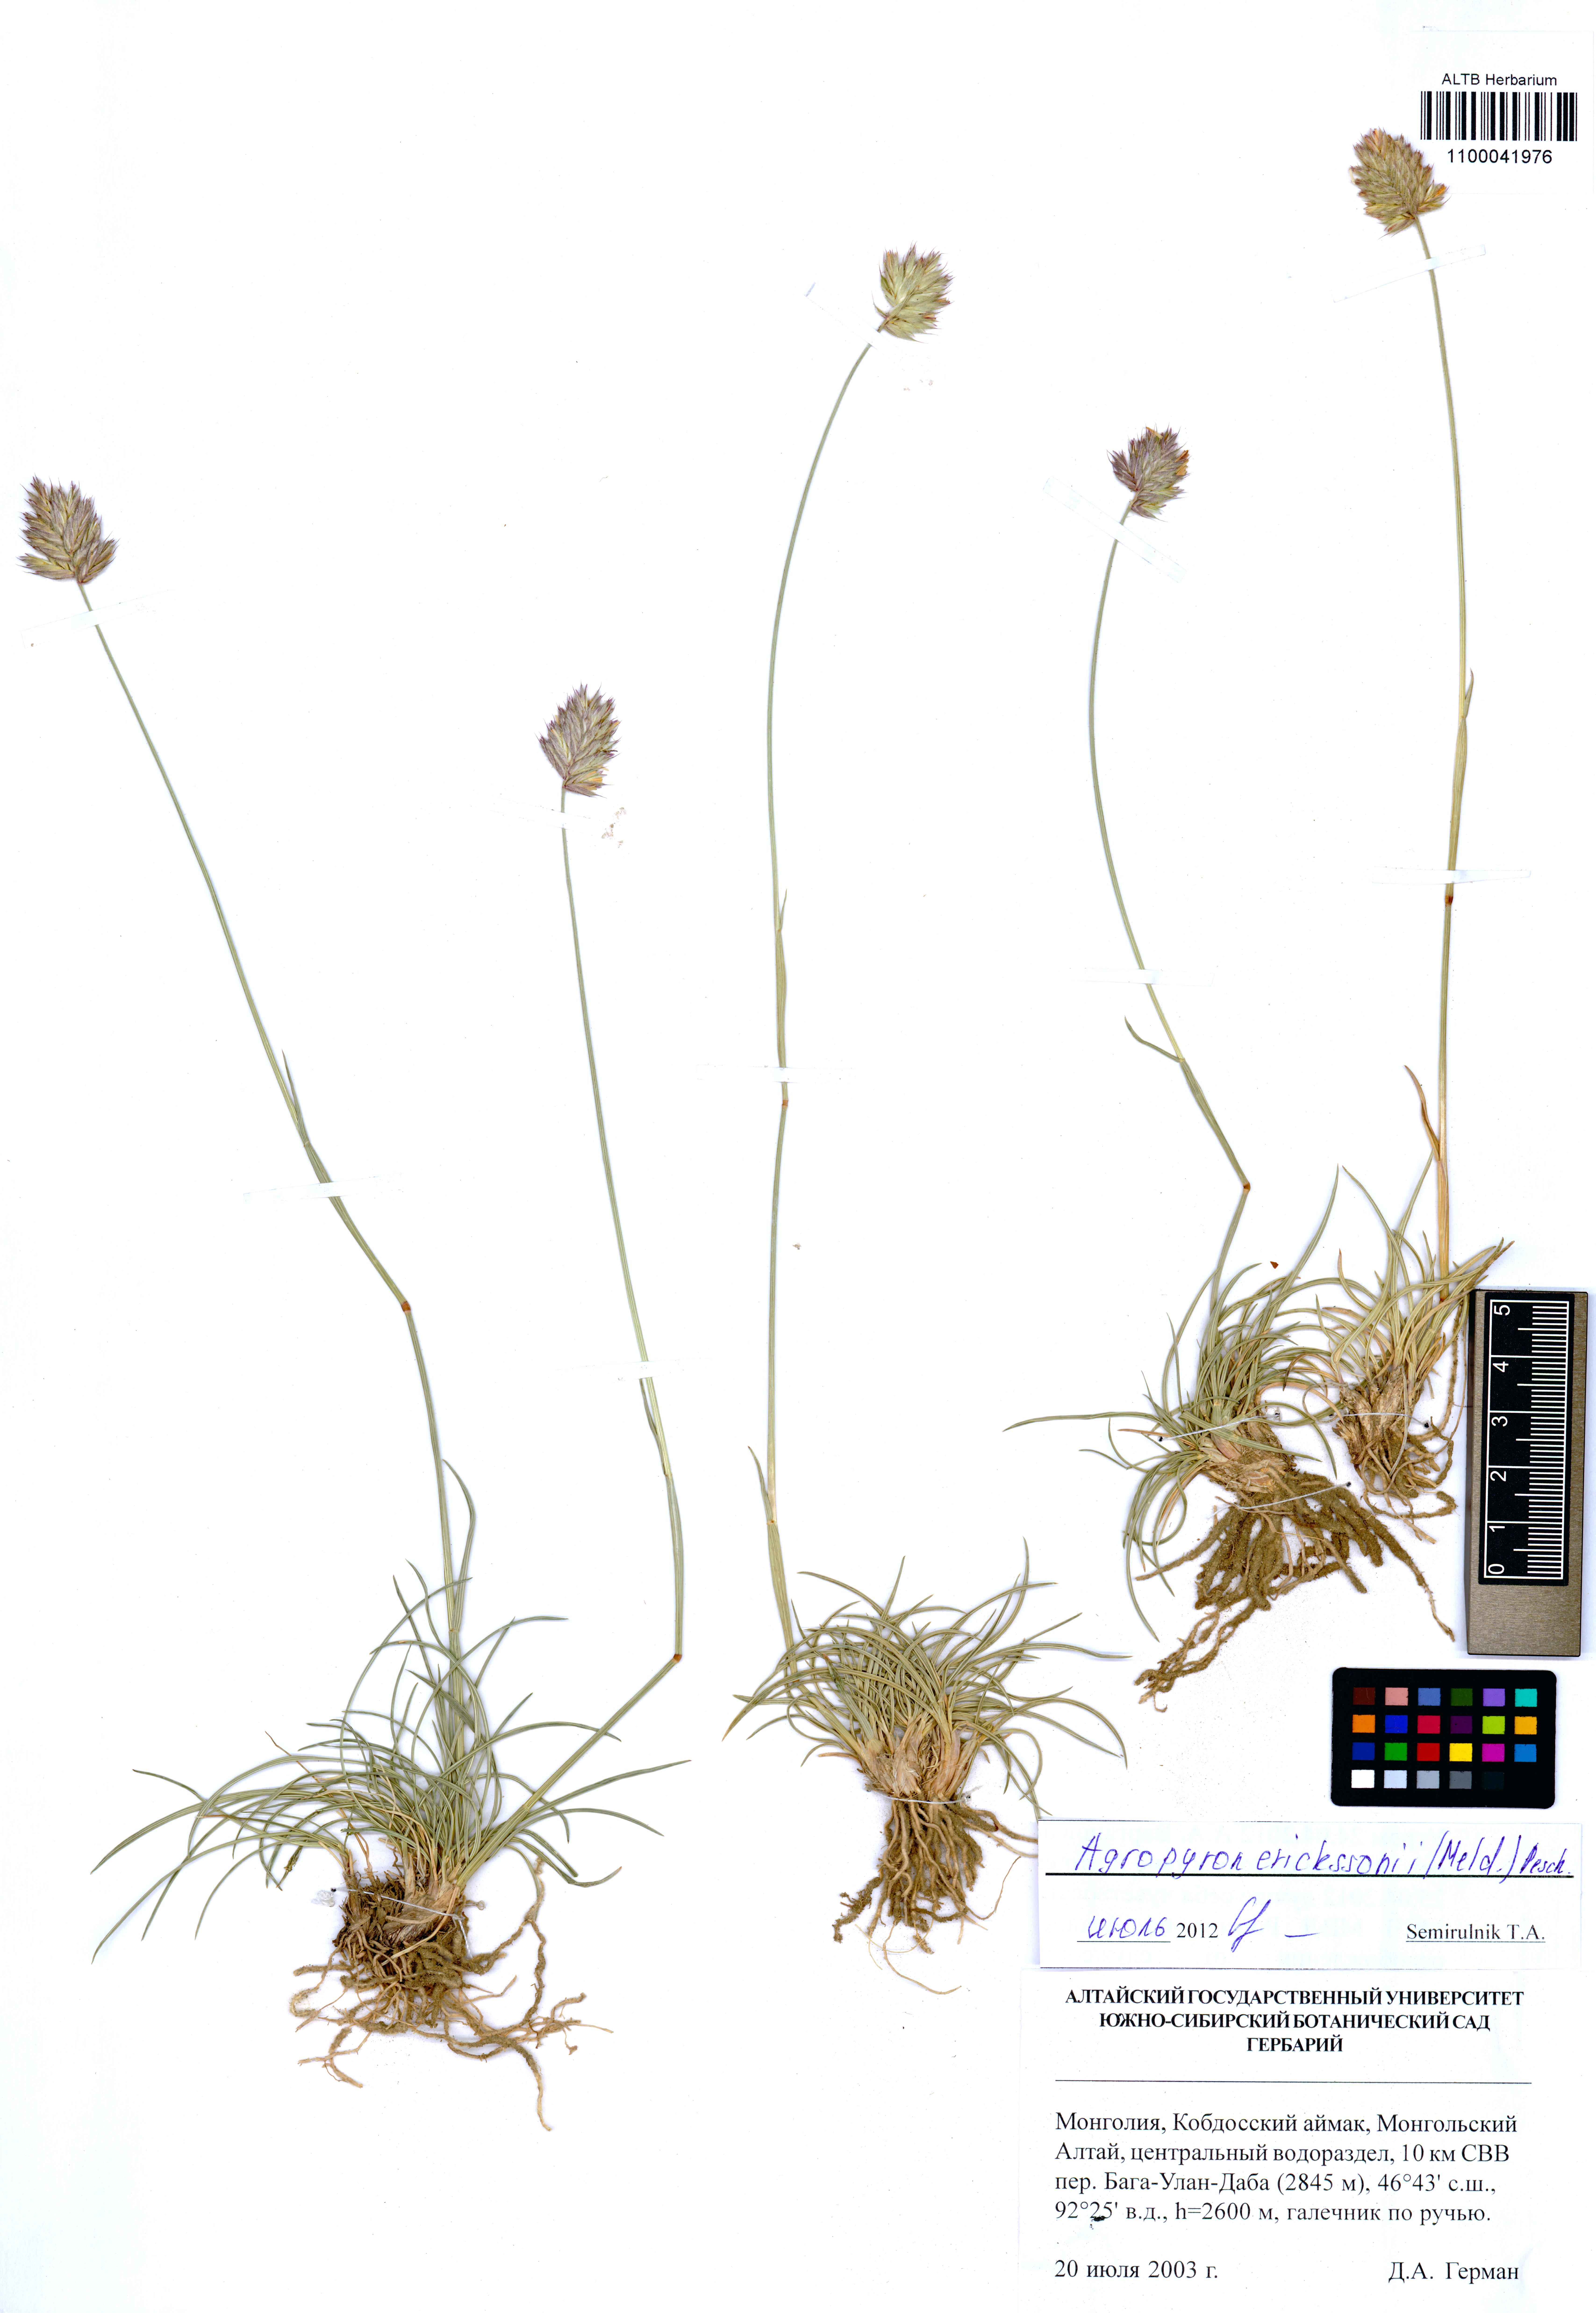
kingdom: Plantae
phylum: Tracheophyta
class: Liliopsida
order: Poales
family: Poaceae
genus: Agropyron
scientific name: Agropyron cristatum
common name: Crested wheatgrass
